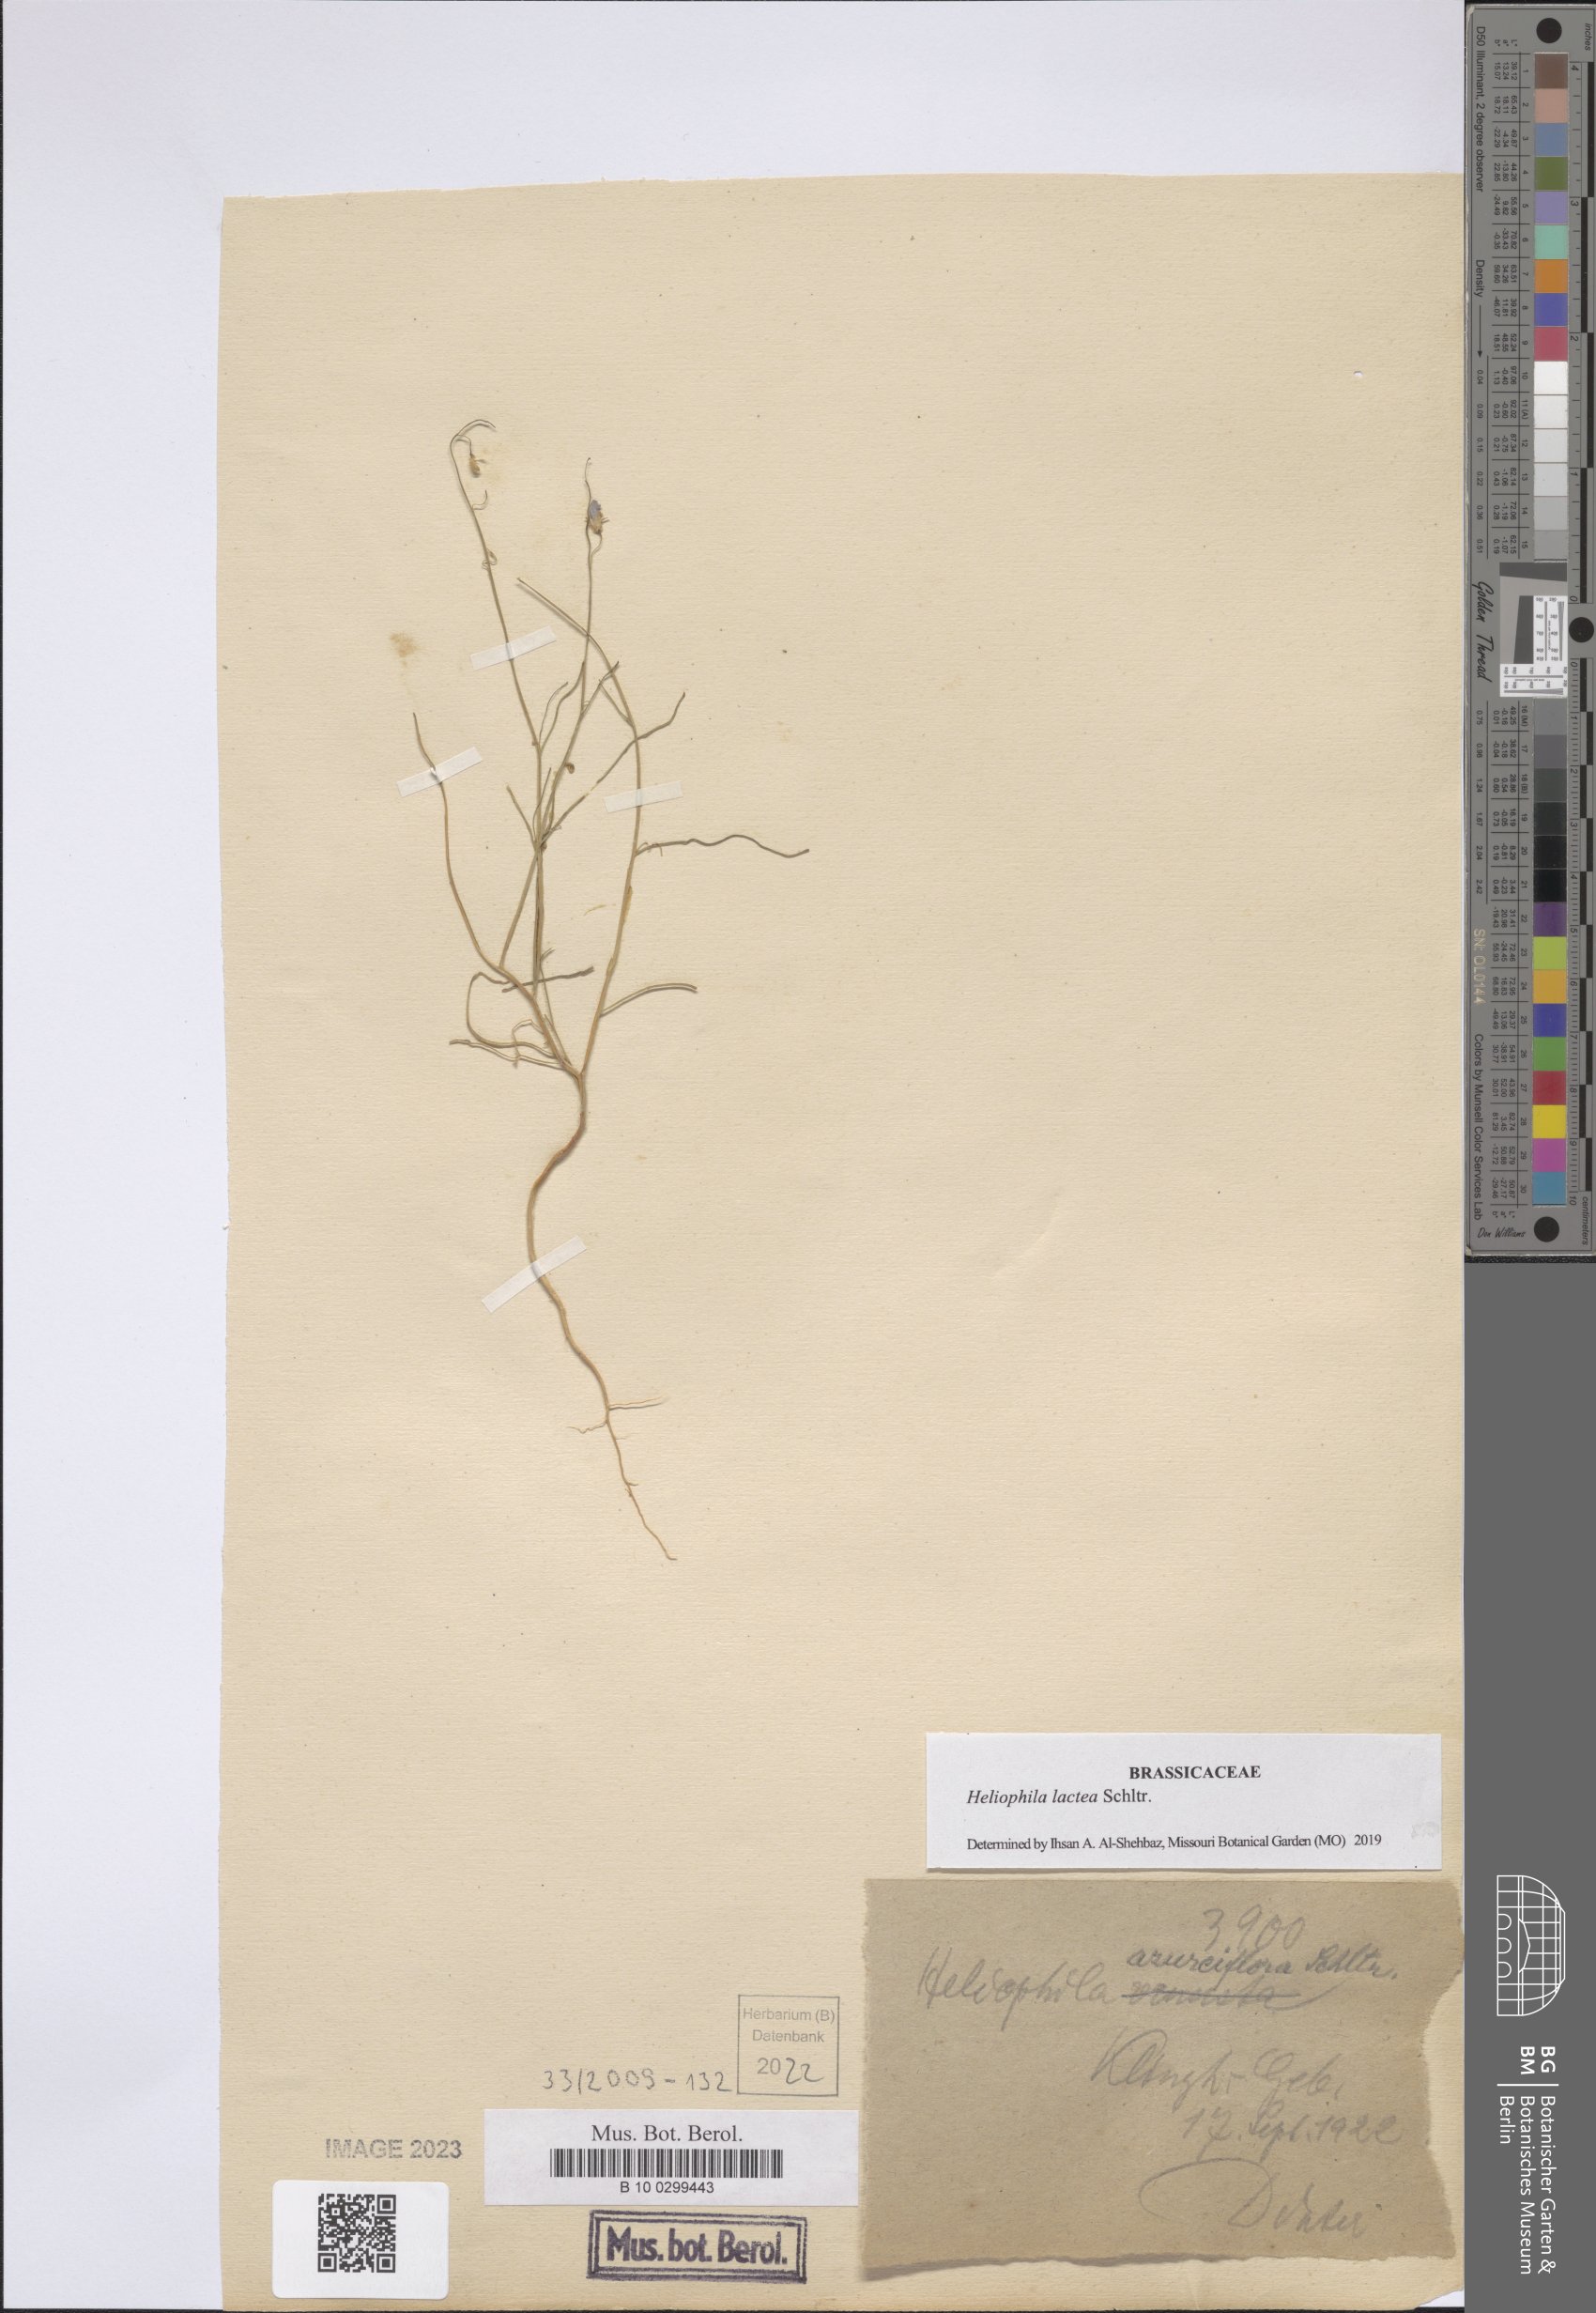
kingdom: Plantae
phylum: Tracheophyta
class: Magnoliopsida
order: Brassicales
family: Brassicaceae
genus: Heliophila
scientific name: Heliophila lactea
